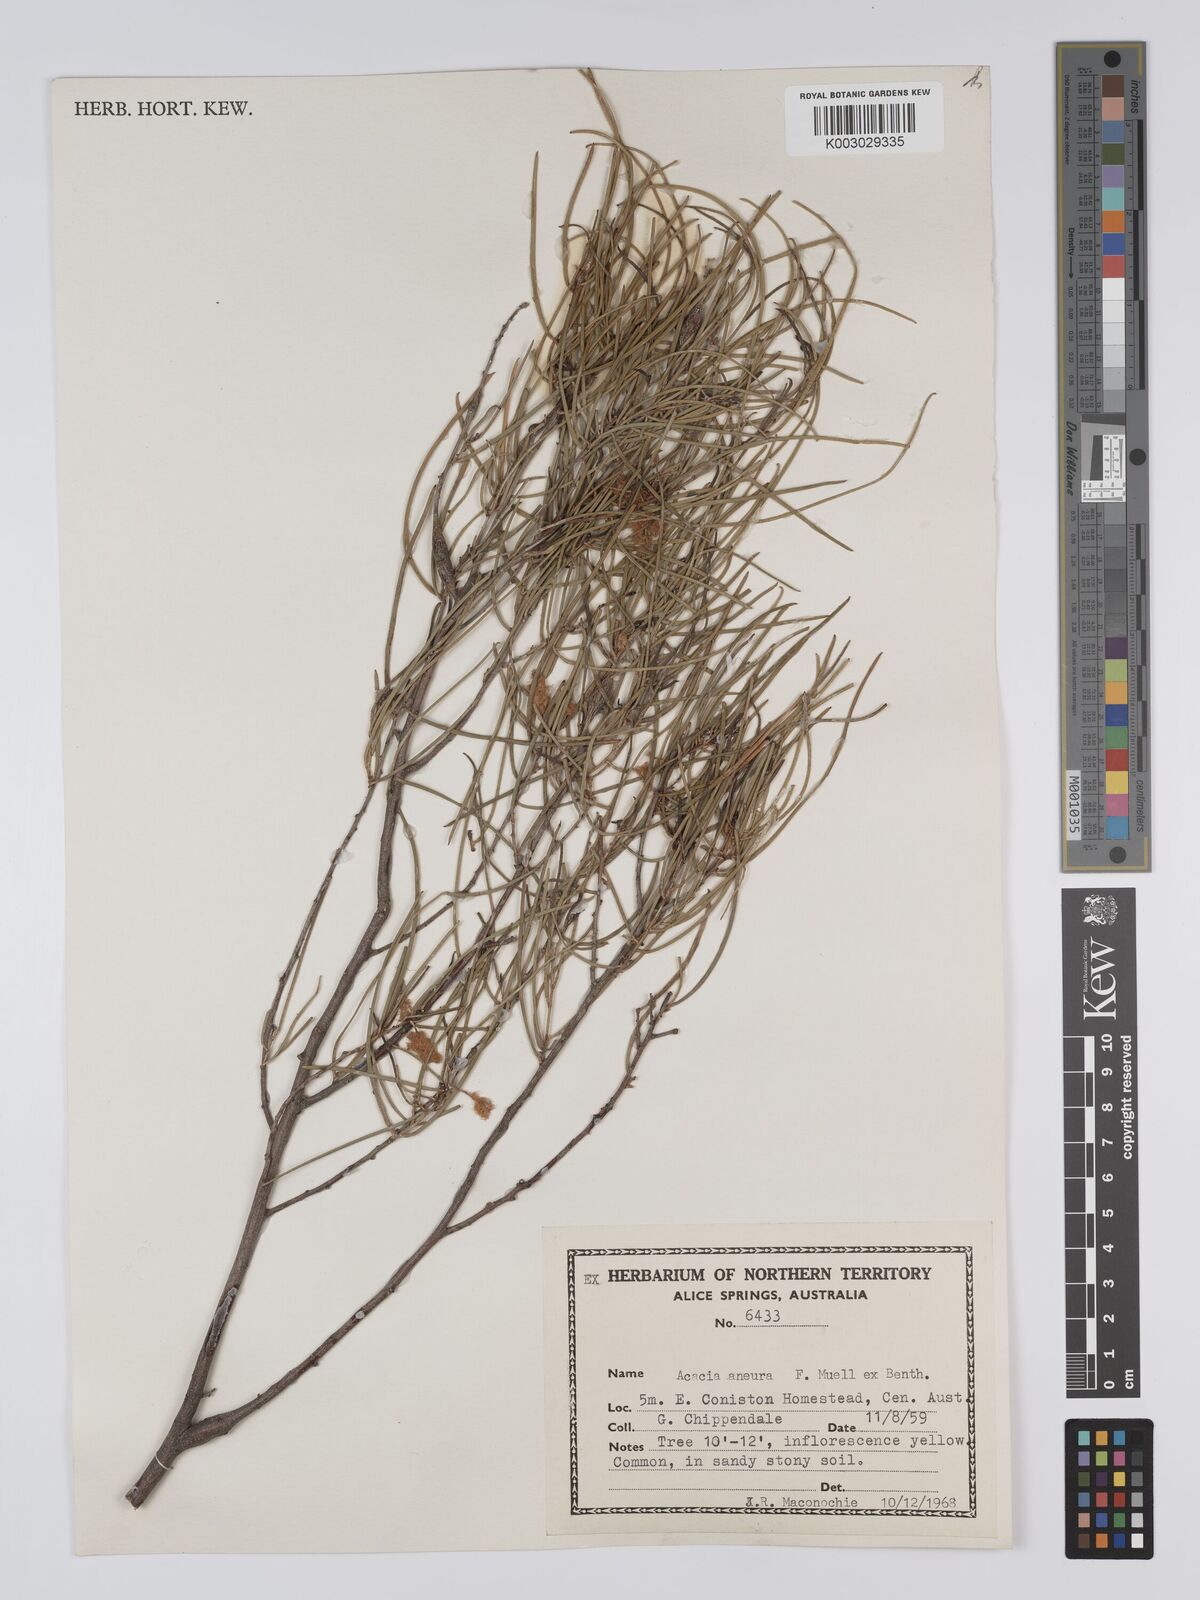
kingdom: Plantae
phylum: Tracheophyta
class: Magnoliopsida
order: Fabales
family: Fabaceae
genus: Acacia
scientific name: Acacia aneura
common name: Mulga
